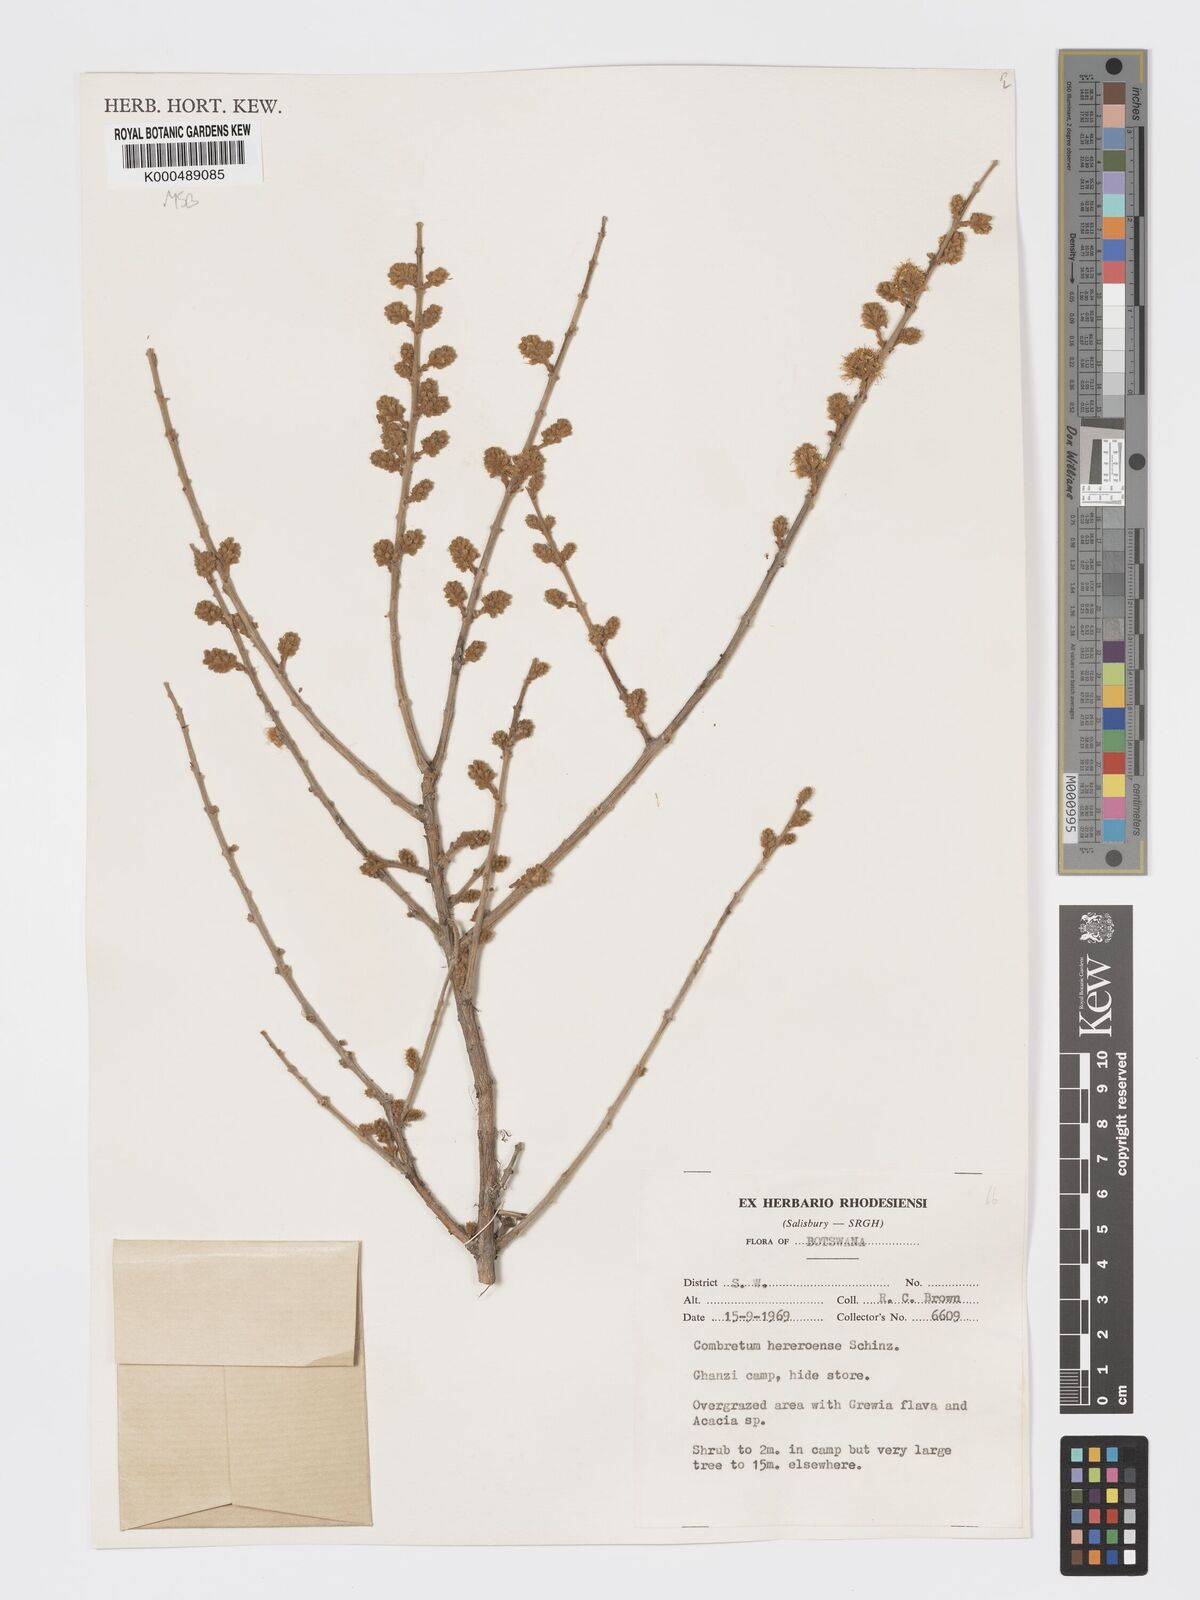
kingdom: Plantae
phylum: Tracheophyta
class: Magnoliopsida
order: Myrtales
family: Combretaceae
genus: Combretum
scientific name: Combretum hereroense
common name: Russet bushwillow
